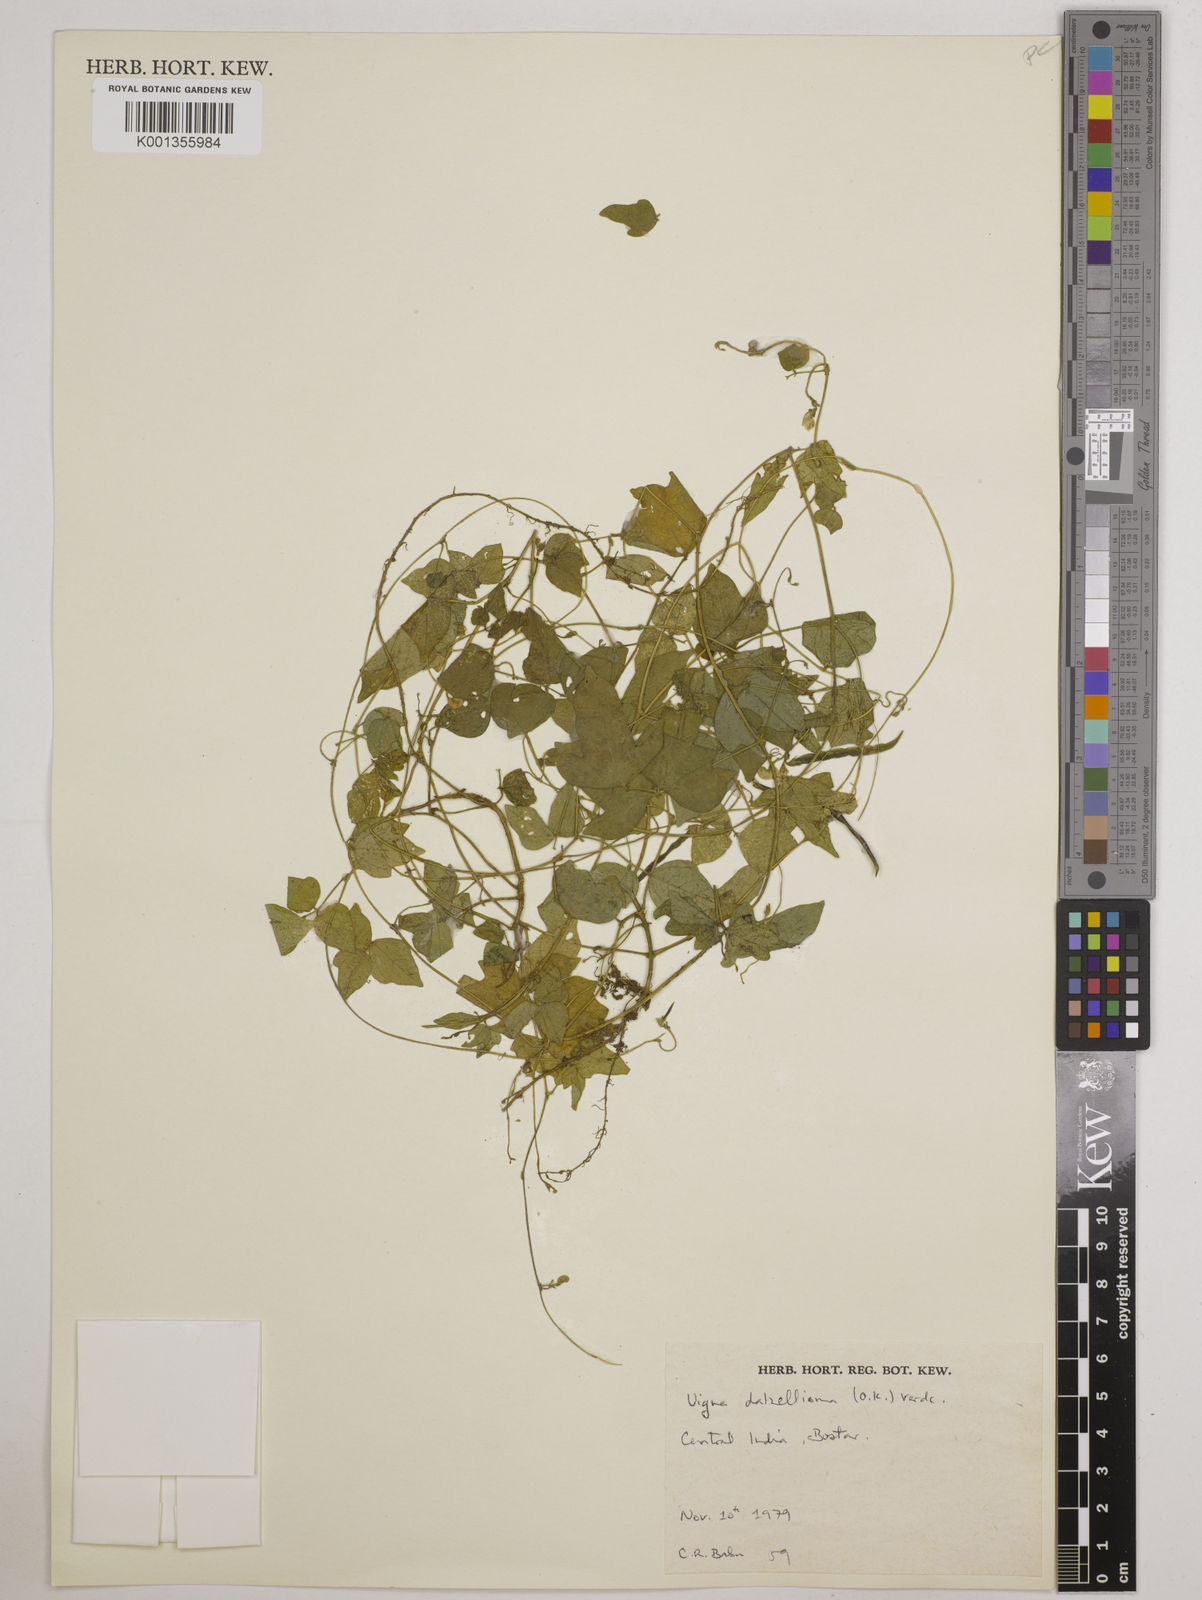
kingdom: Plantae
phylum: Tracheophyta
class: Magnoliopsida
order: Fabales
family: Fabaceae
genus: Vigna
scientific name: Vigna dalzelliana
